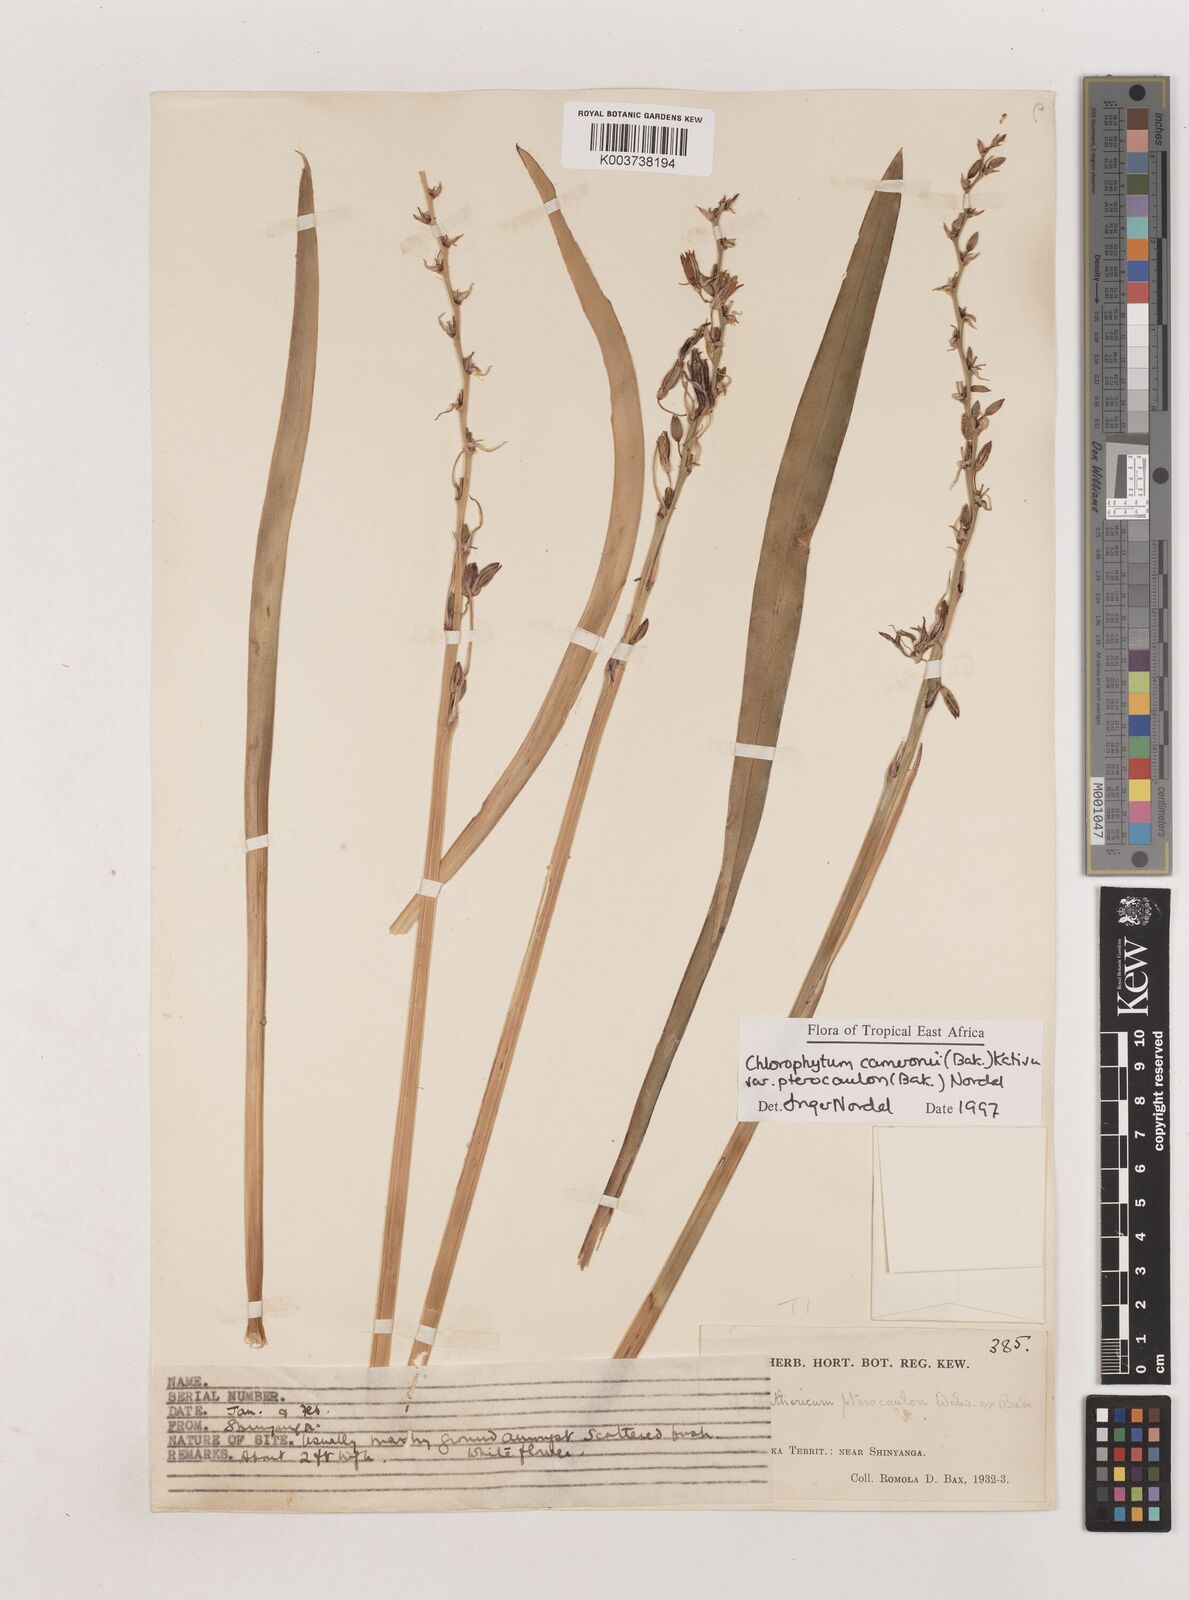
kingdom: Plantae
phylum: Tracheophyta
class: Liliopsida
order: Asparagales
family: Asparagaceae
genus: Chlorophytum
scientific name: Chlorophytum cameronii
